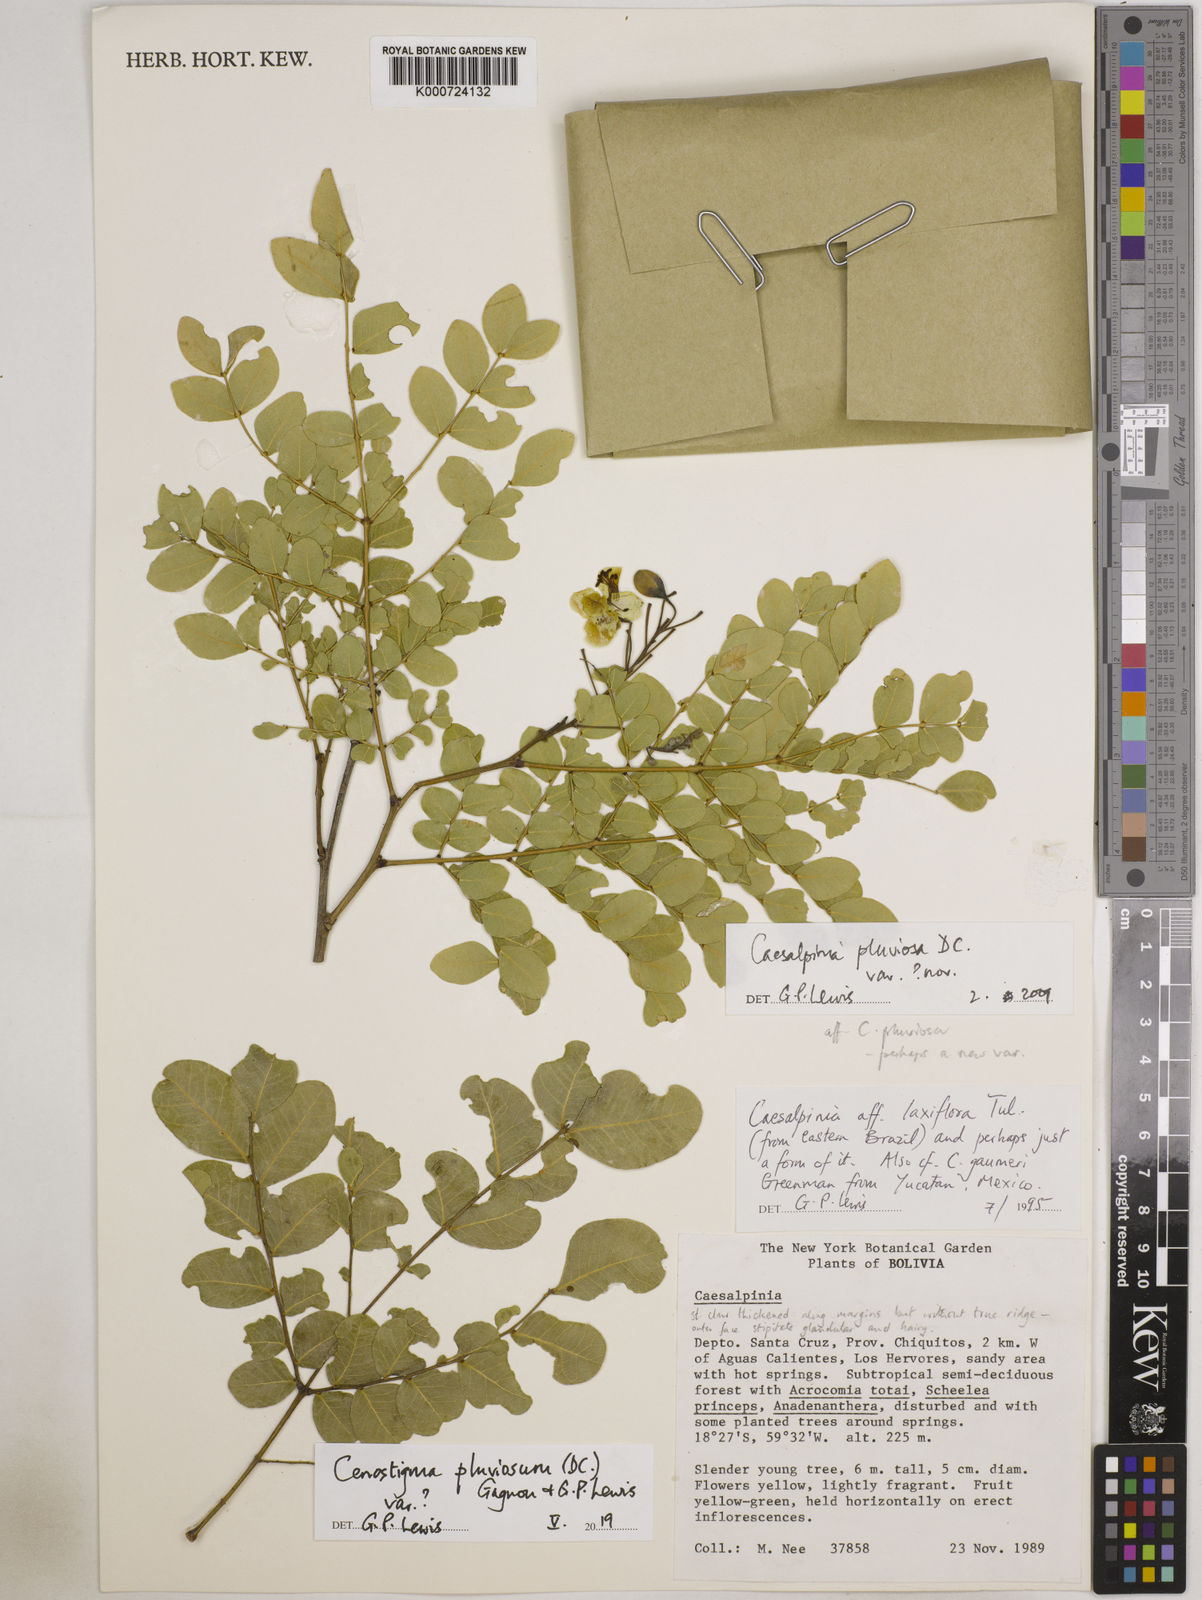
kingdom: Plantae
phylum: Tracheophyta
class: Magnoliopsida
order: Fabales
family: Fabaceae
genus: Cenostigma
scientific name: Cenostigma pluviosum
